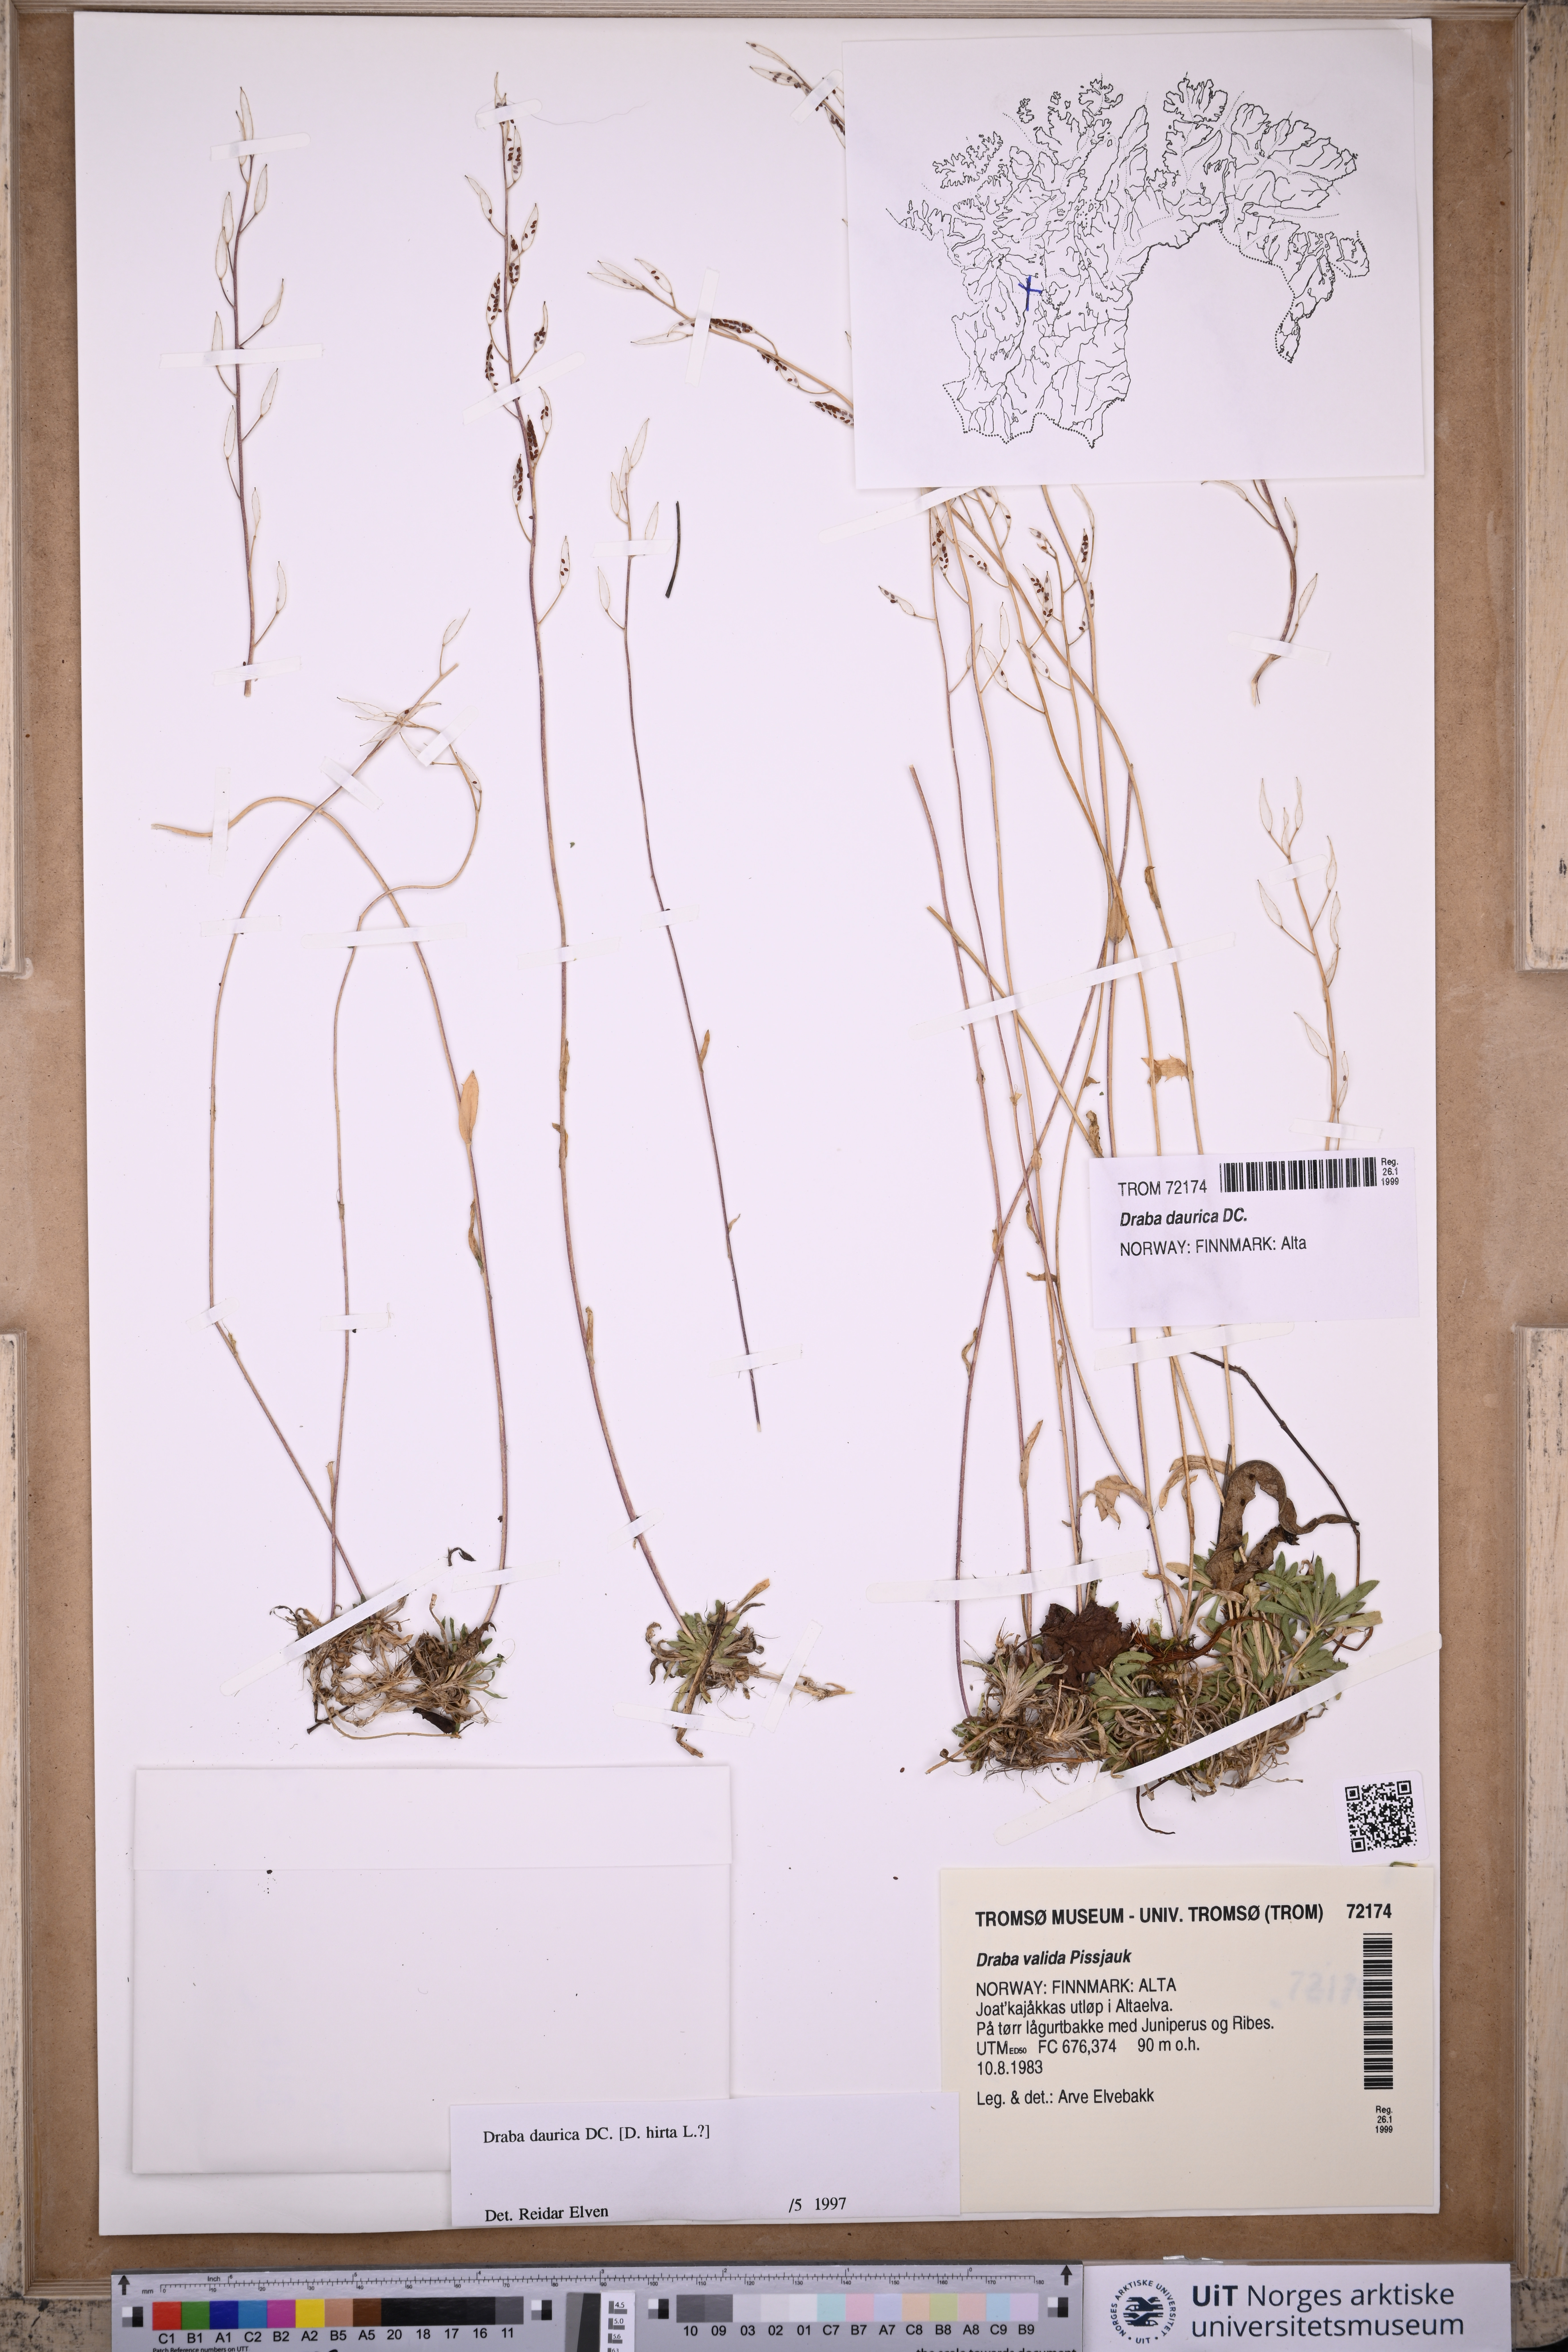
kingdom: Plantae
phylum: Tracheophyta
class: Magnoliopsida
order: Brassicales
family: Brassicaceae
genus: Draba
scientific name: Draba glabella
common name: Glaucous draba
